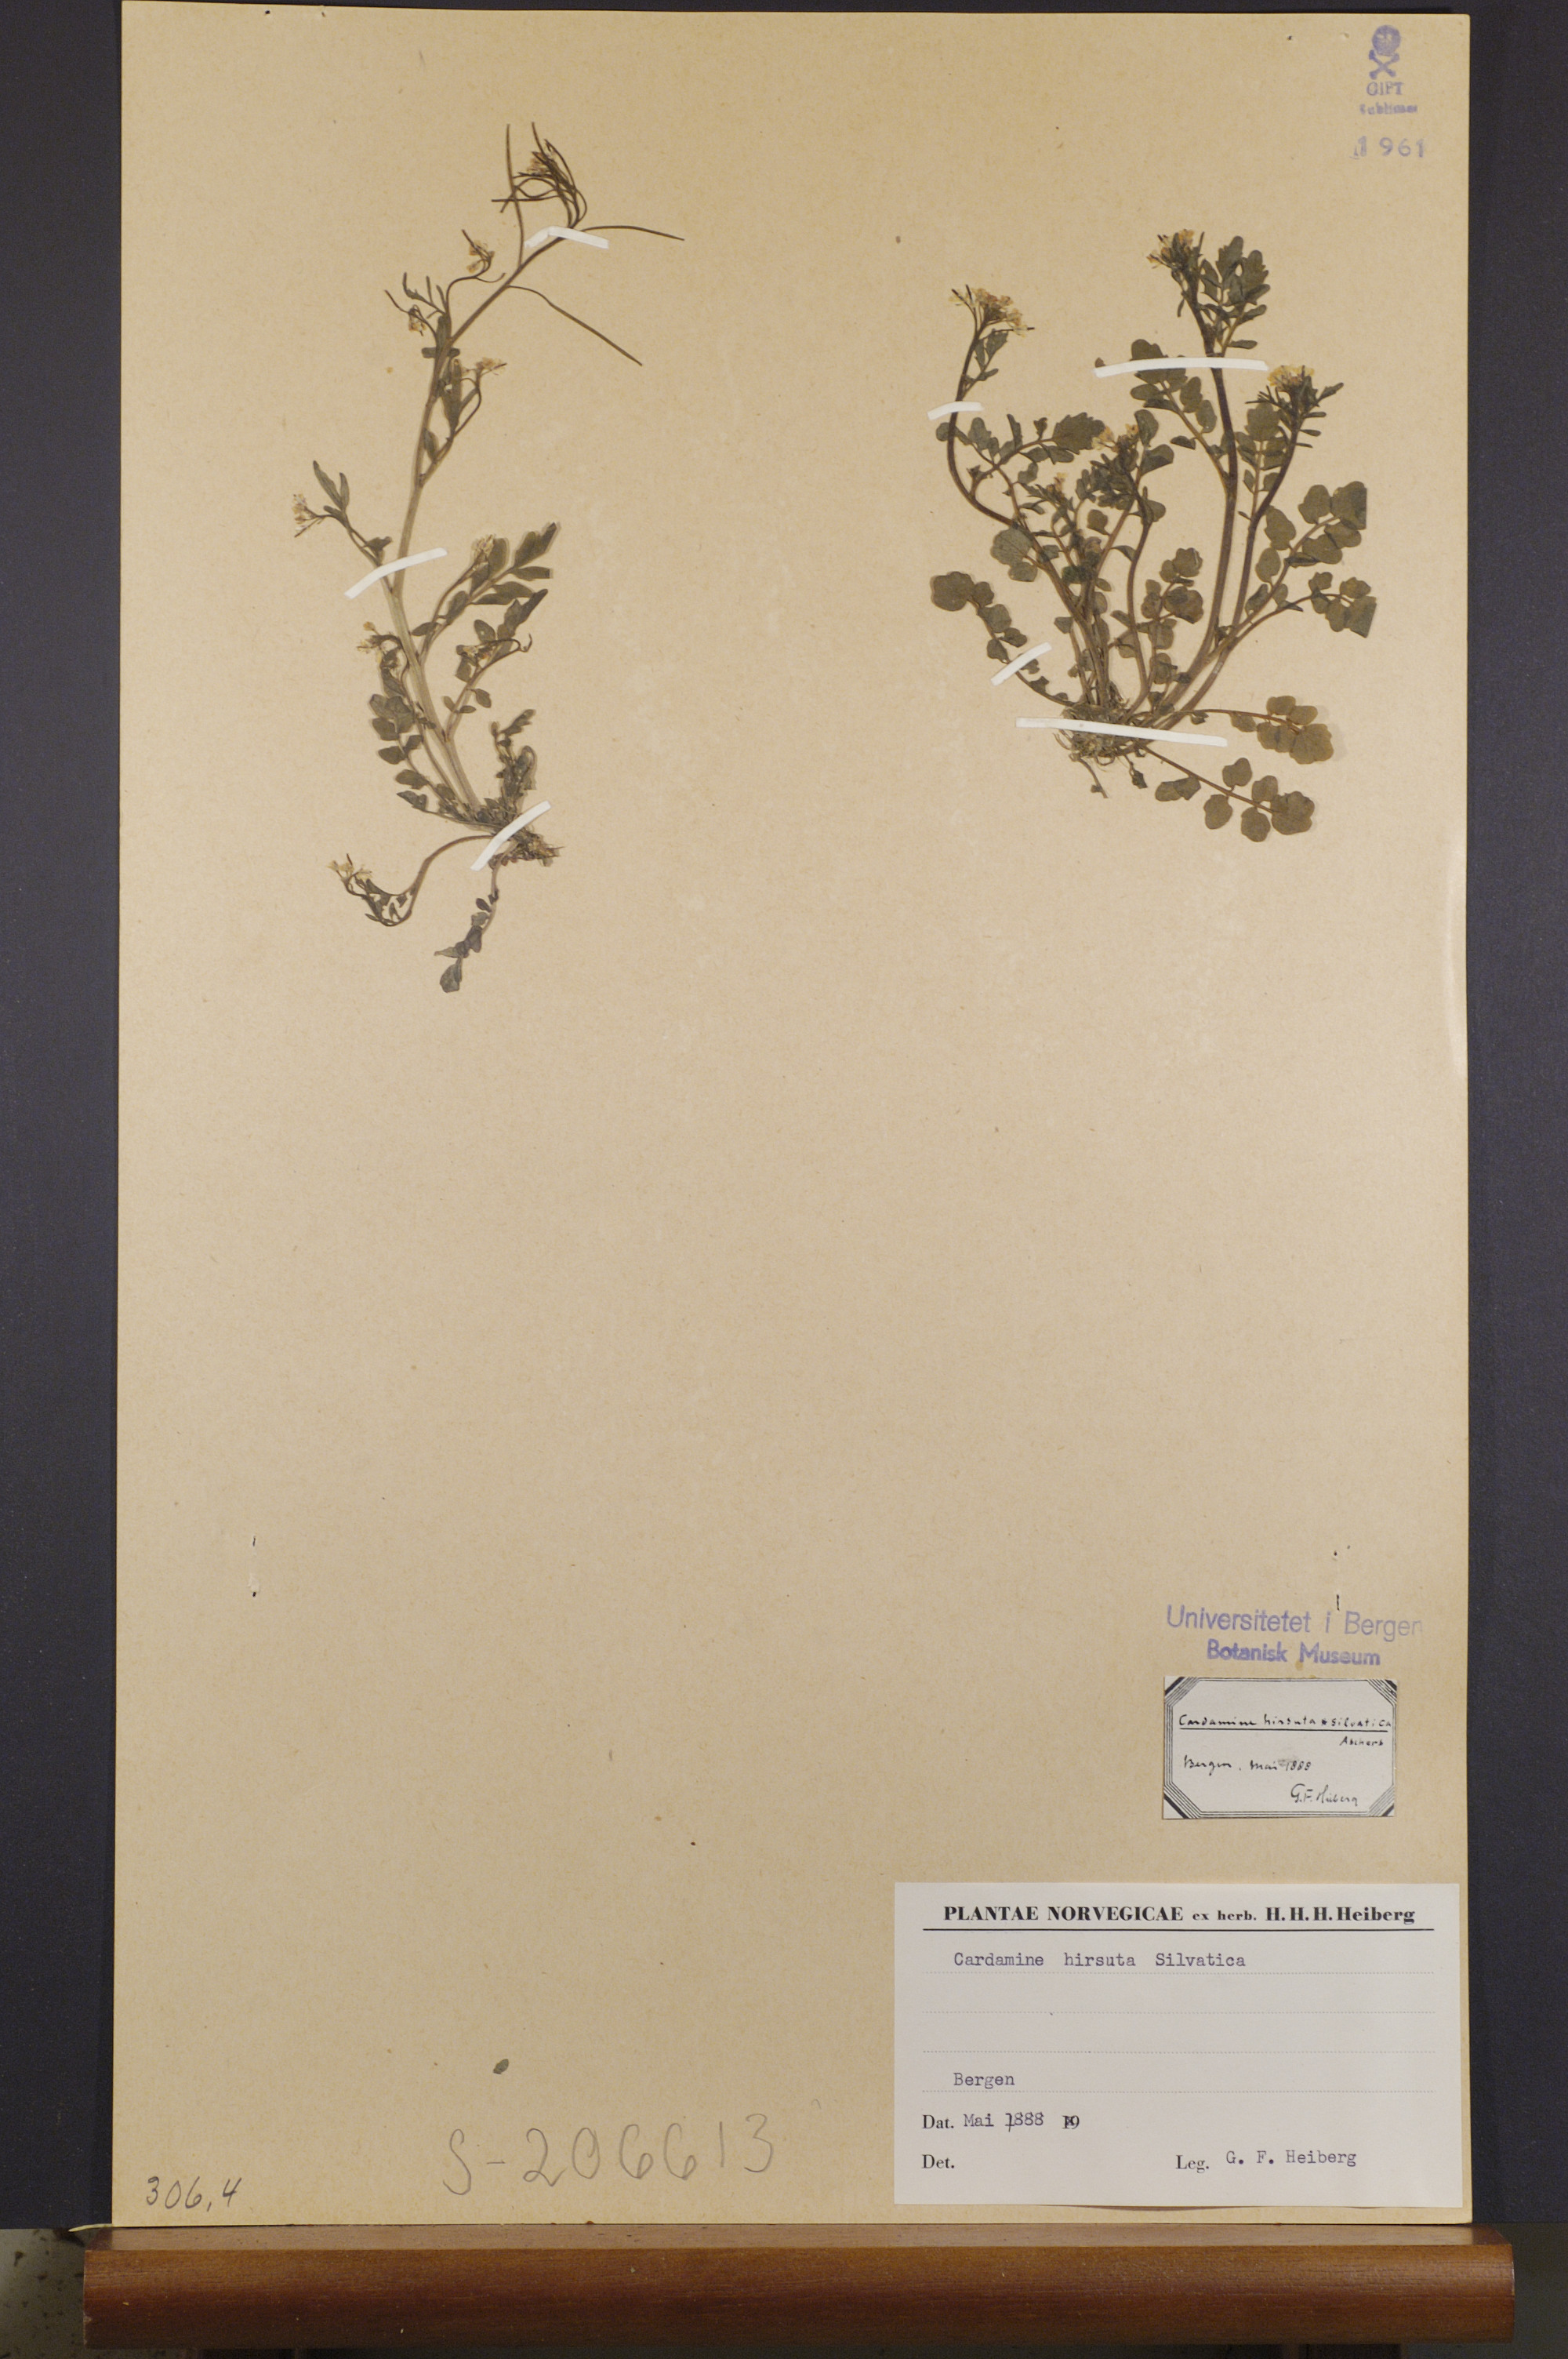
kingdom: Plantae
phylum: Tracheophyta
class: Magnoliopsida
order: Brassicales
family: Brassicaceae
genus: Cardamine
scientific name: Cardamine flexuosa
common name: Woodland bittercress
